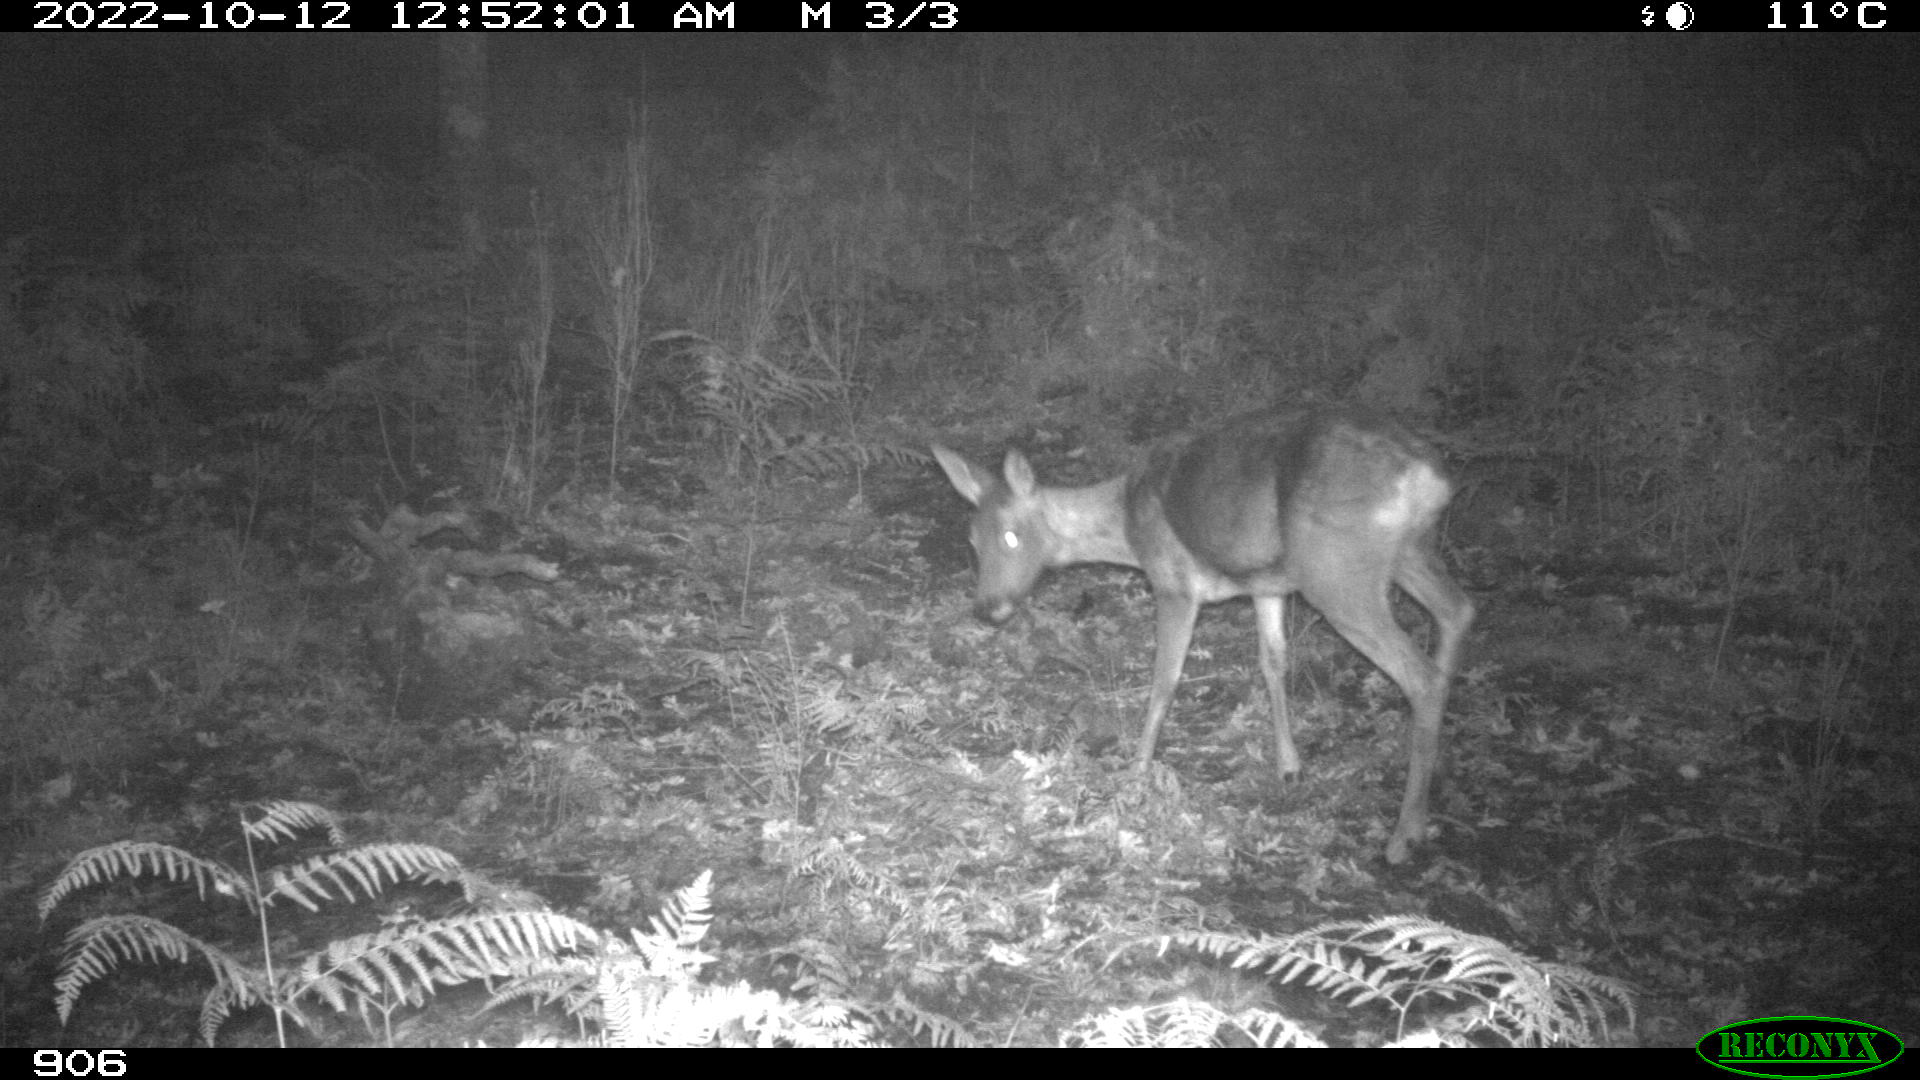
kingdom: Animalia
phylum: Chordata
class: Mammalia
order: Artiodactyla
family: Cervidae
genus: Capreolus
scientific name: Capreolus capreolus
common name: Western roe deer
